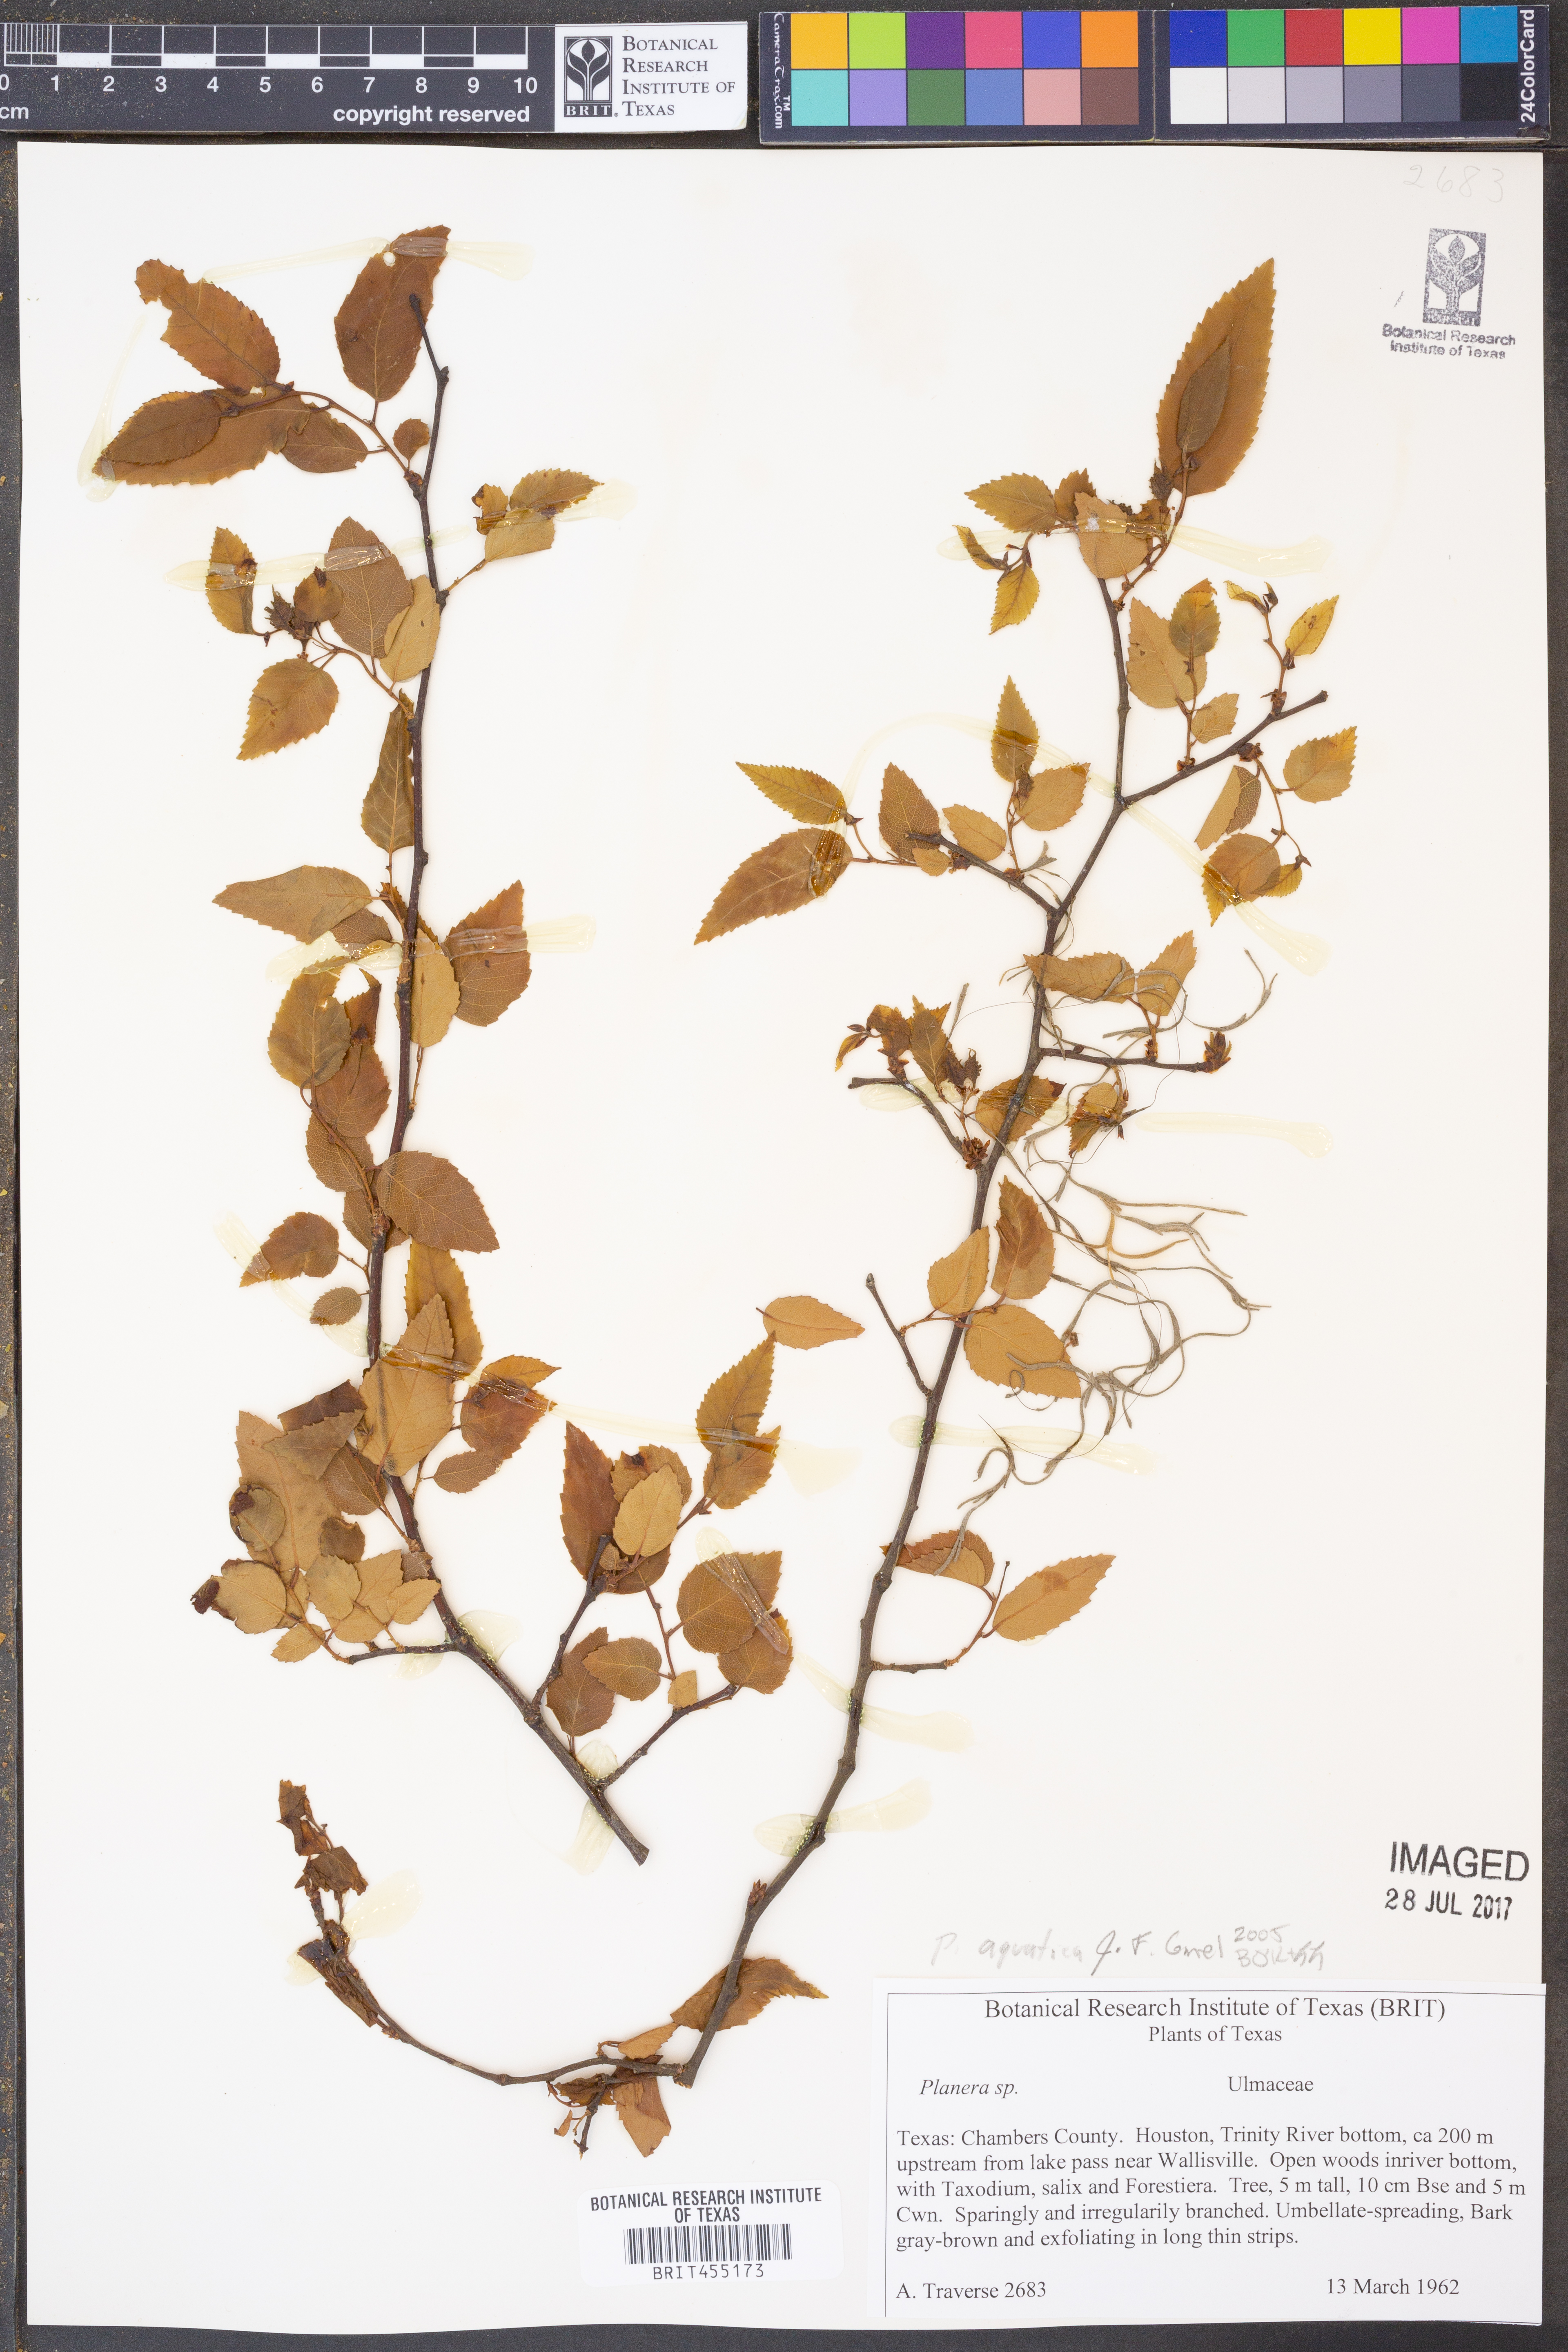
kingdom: Plantae
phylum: Tracheophyta
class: Magnoliopsida
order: Rosales
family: Ulmaceae
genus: Planera
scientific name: Planera aquatica
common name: Water-elm
